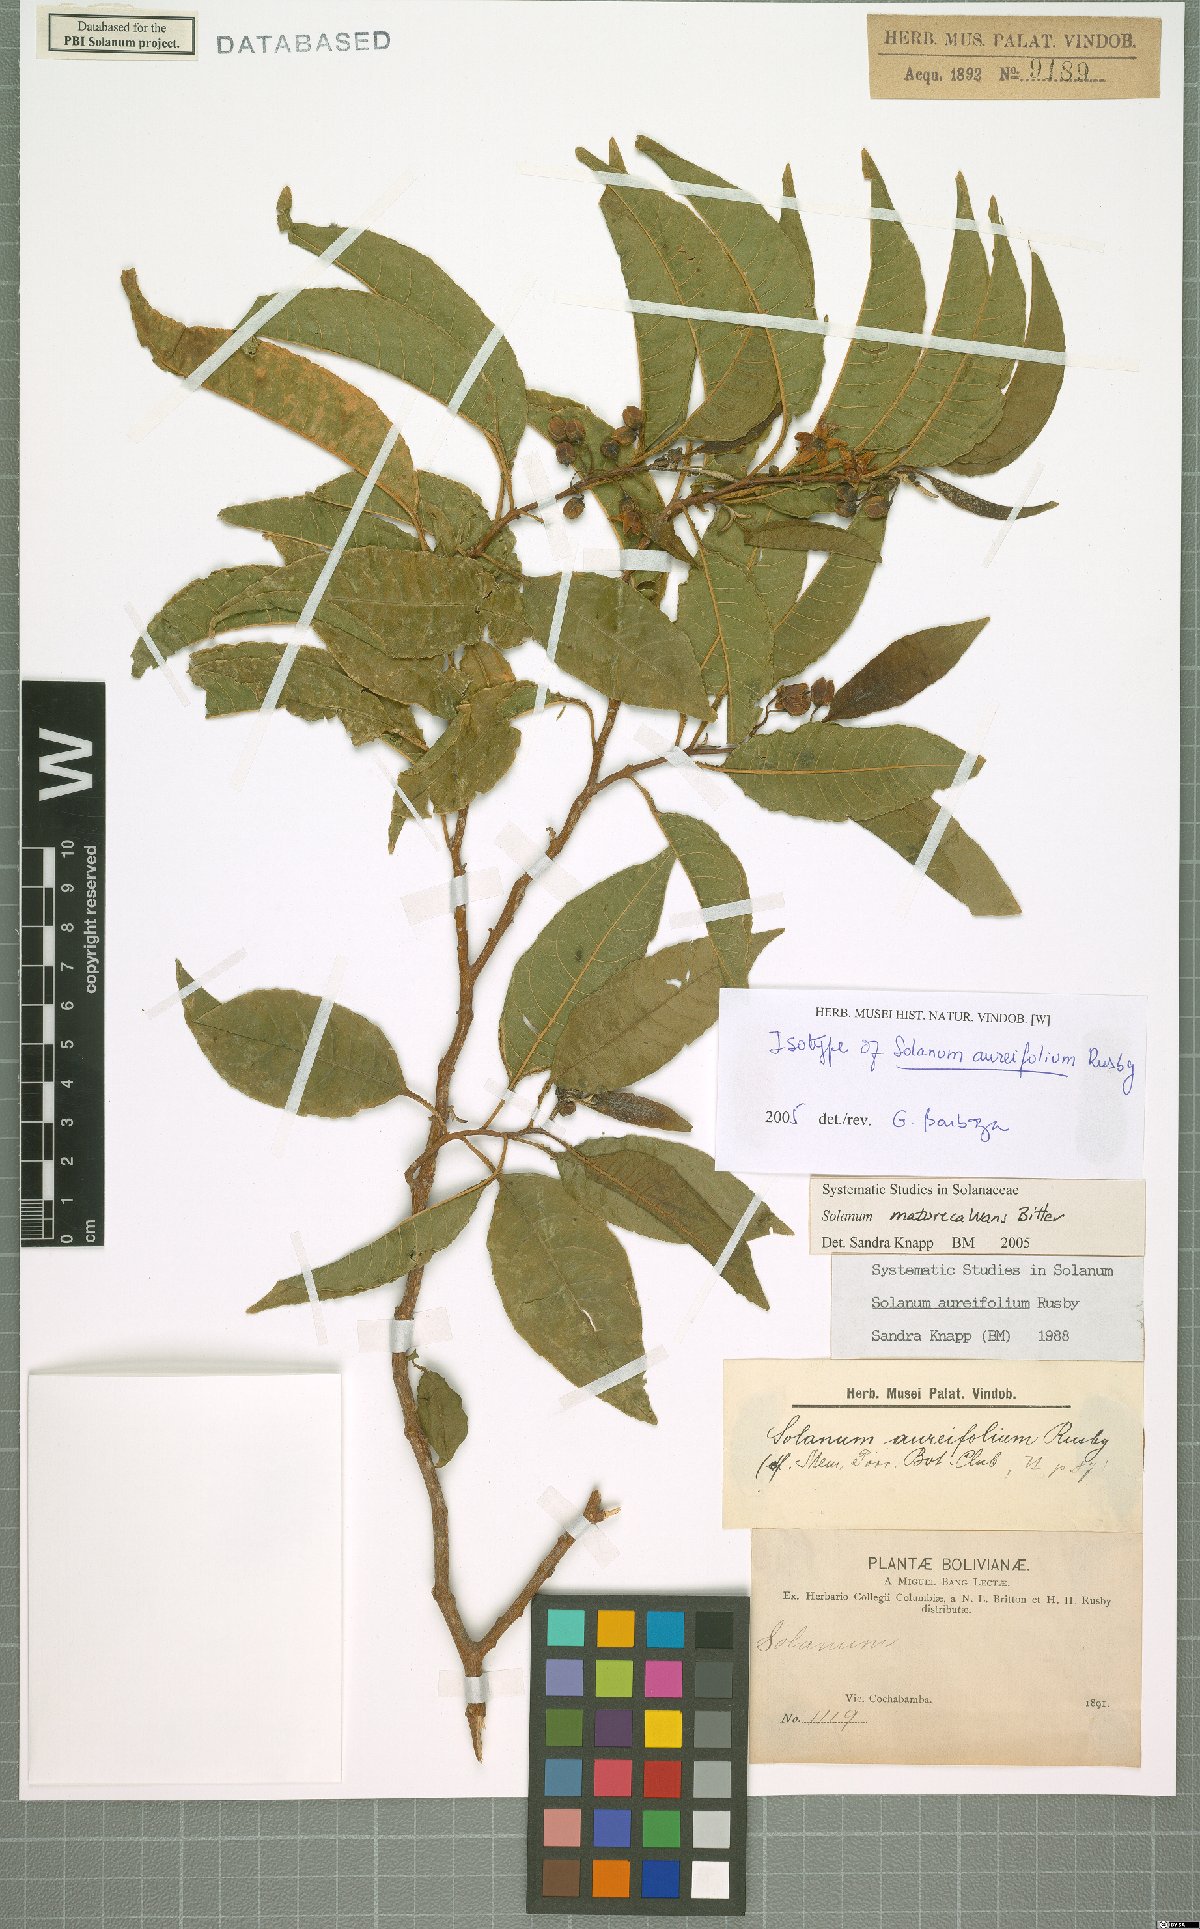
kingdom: Plantae
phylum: Tracheophyta
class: Magnoliopsida
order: Solanales
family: Solanaceae
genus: Solanum
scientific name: Solanum maturecalvans
